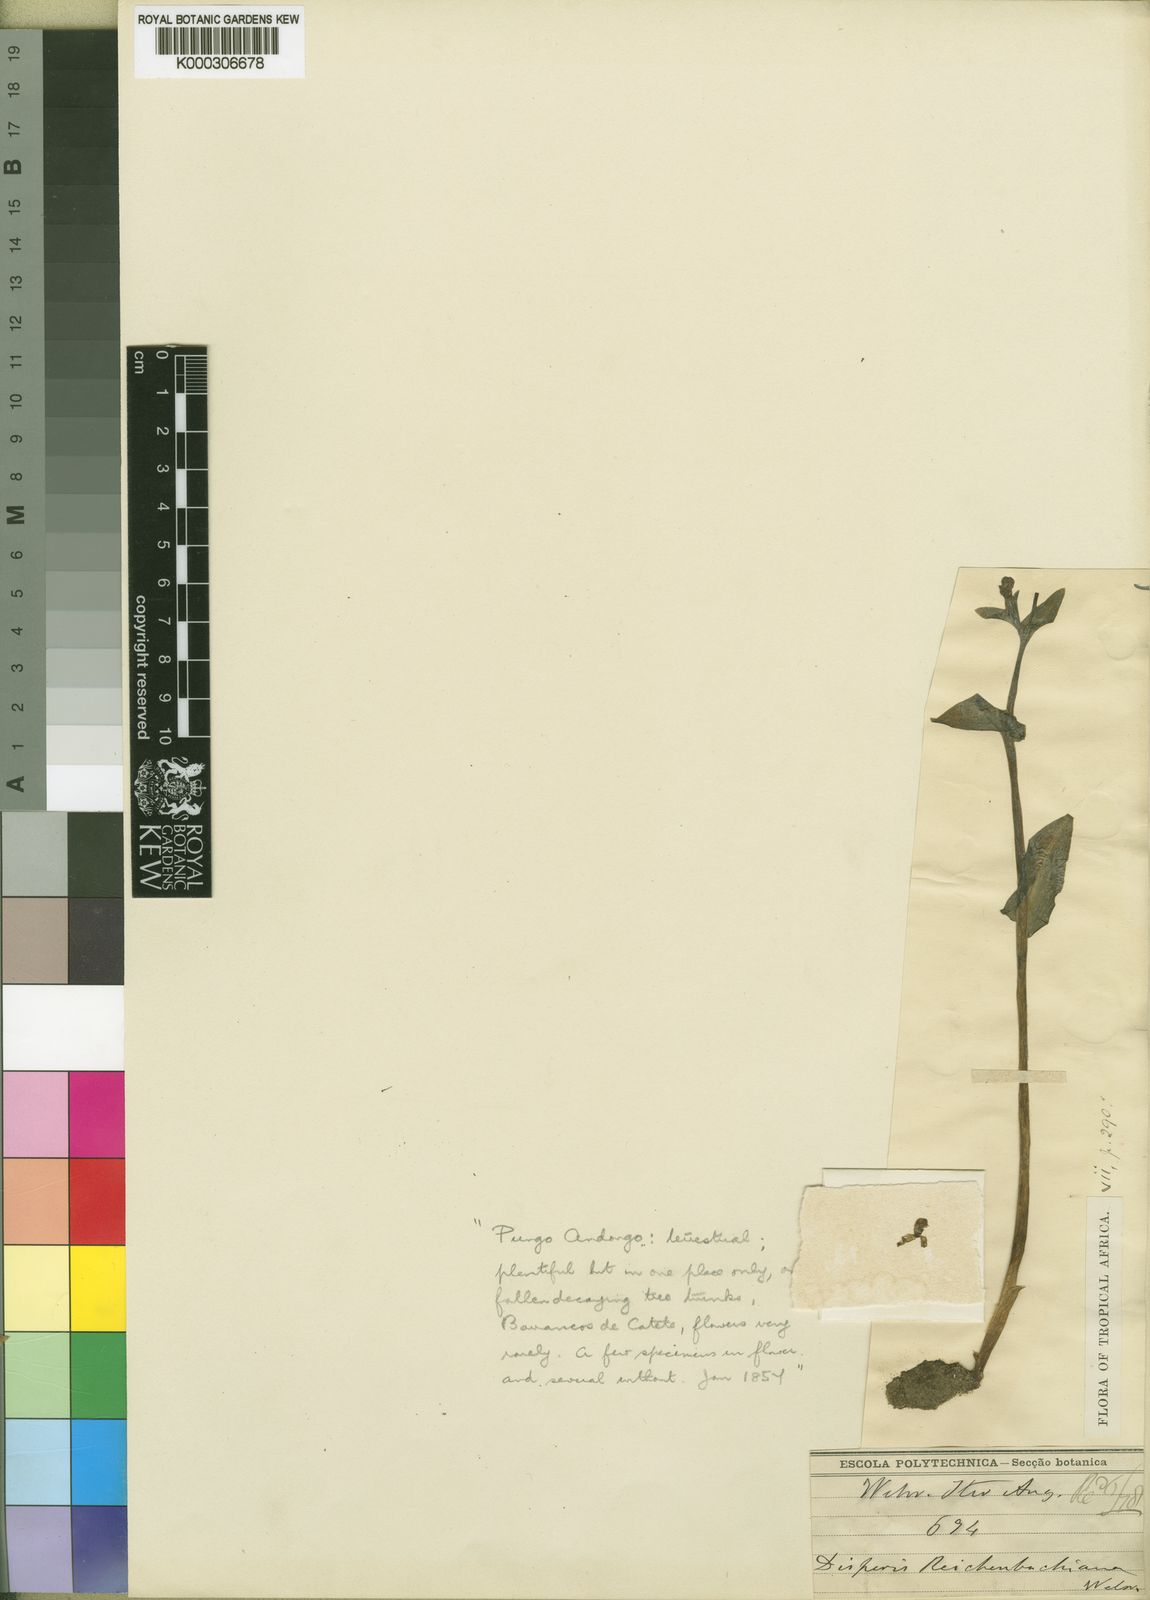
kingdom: Plantae
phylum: Tracheophyta
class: Liliopsida
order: Asparagales
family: Orchidaceae
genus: Disperis
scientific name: Disperis
